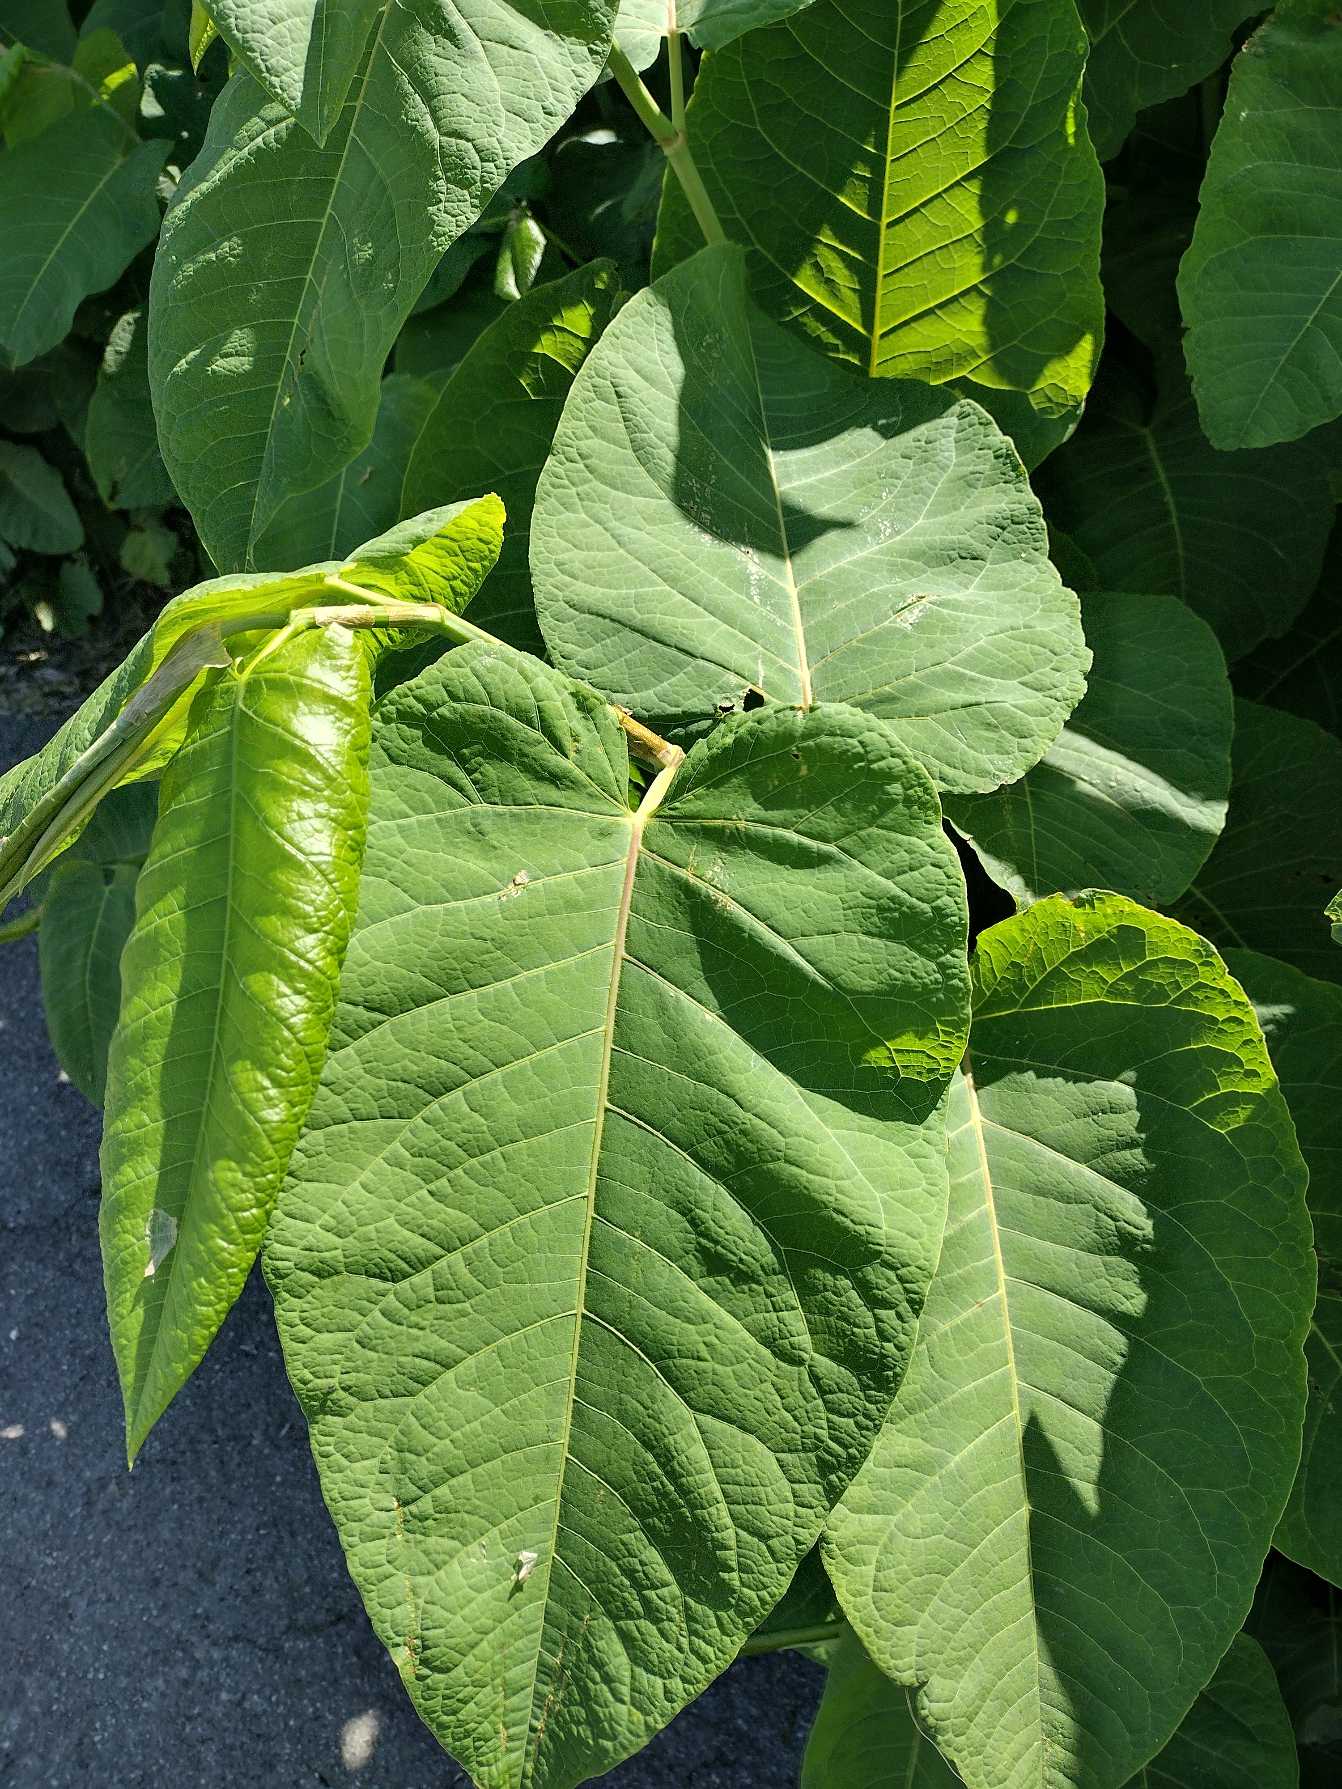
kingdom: Plantae
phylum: Tracheophyta
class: Magnoliopsida
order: Caryophyllales
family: Polygonaceae
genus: Reynoutria
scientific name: Reynoutria sachalinensis
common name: Kæmpe-pileurt
